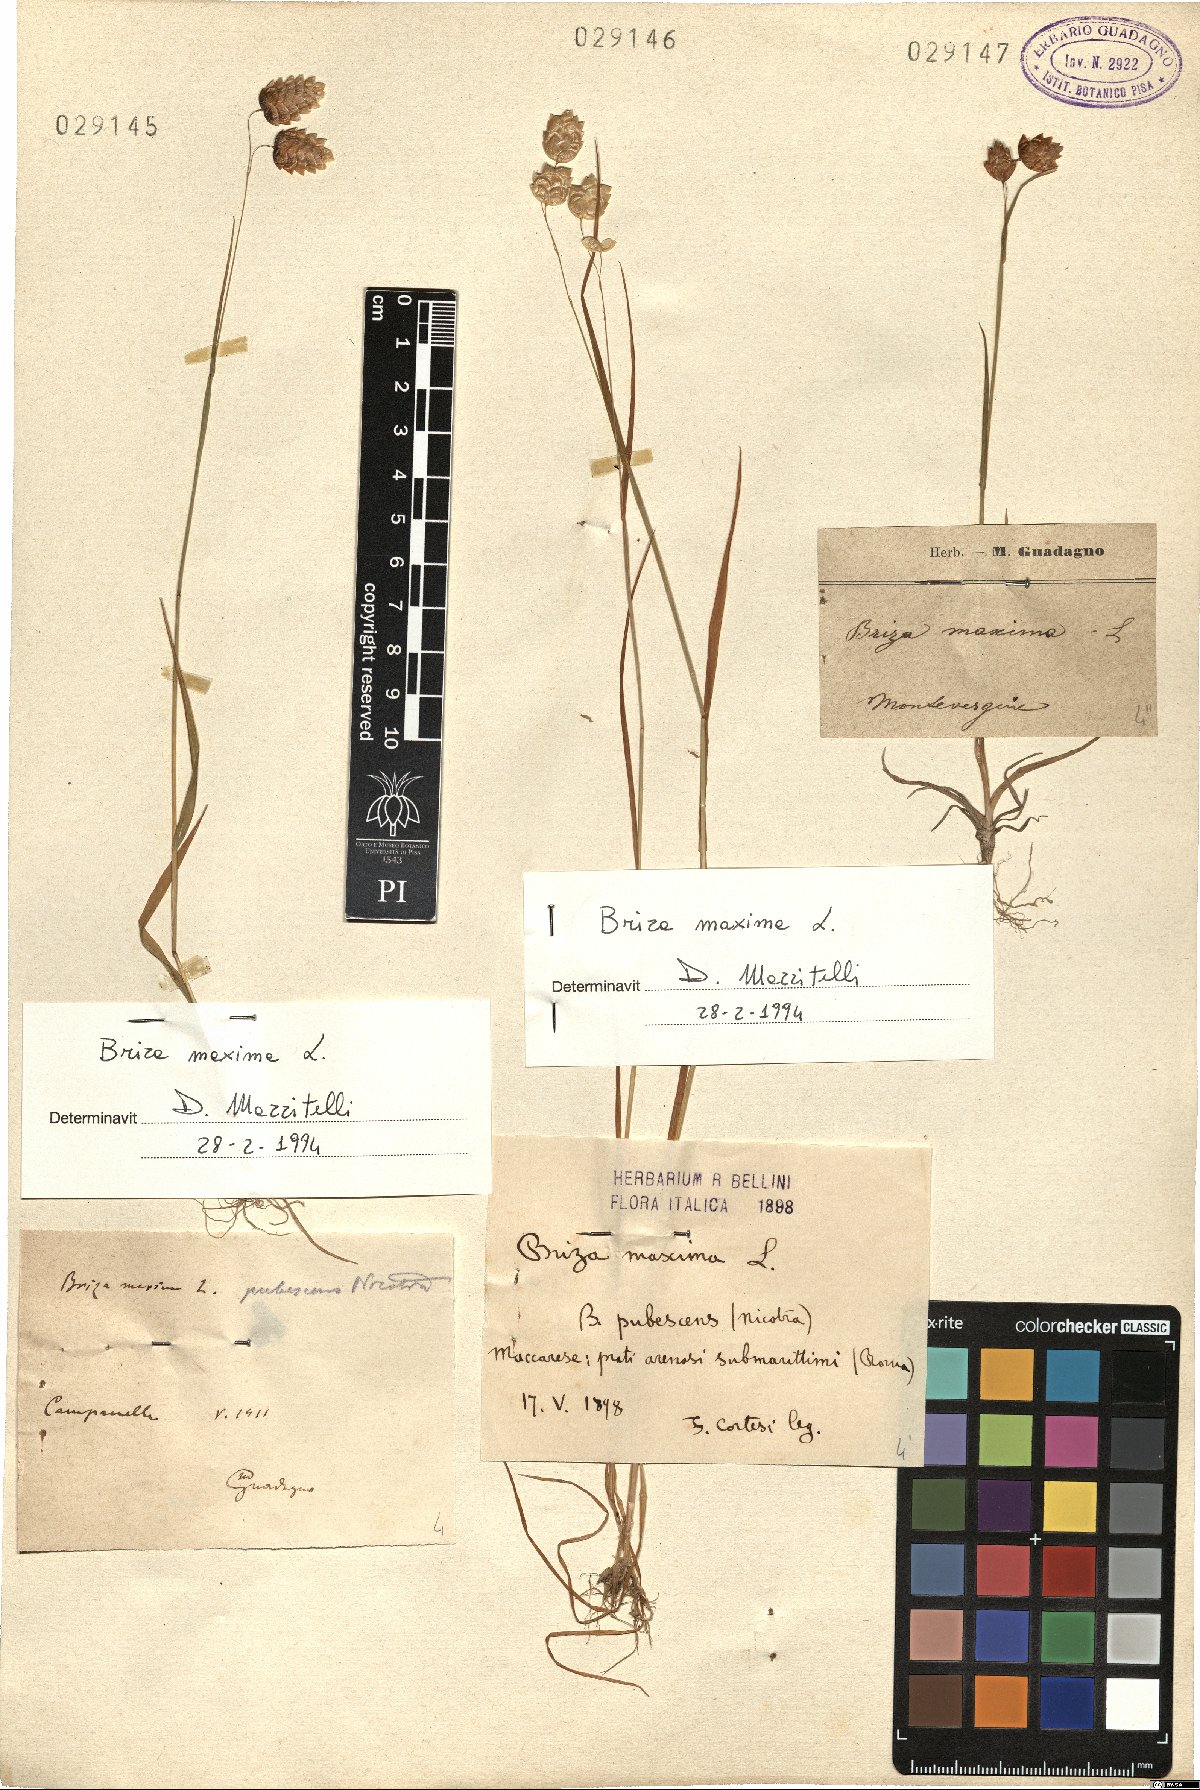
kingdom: Plantae
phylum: Tracheophyta
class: Liliopsida
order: Poales
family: Poaceae
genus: Briza
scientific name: Briza maxima
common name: Big quakinggrass
